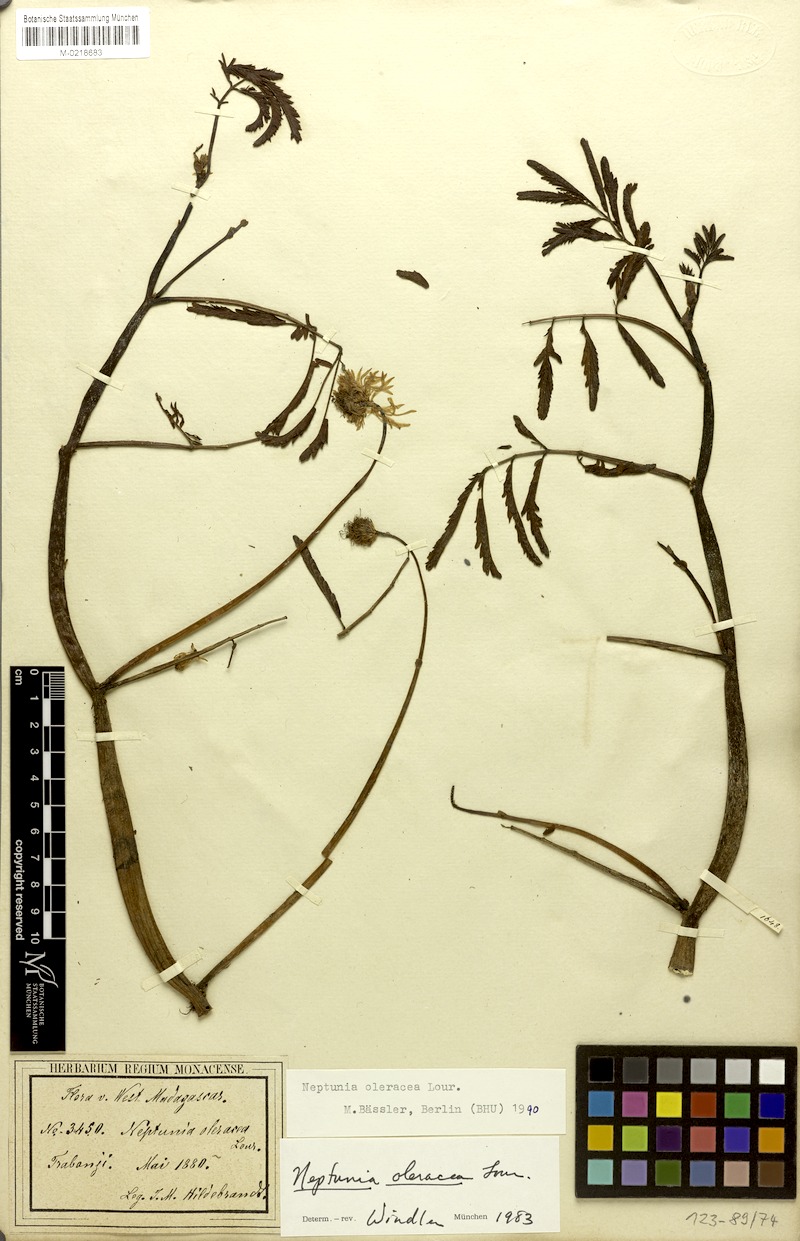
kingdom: Plantae
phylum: Tracheophyta
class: Magnoliopsida
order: Fabales
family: Fabaceae
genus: Neptunia
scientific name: Neptunia prostrata
